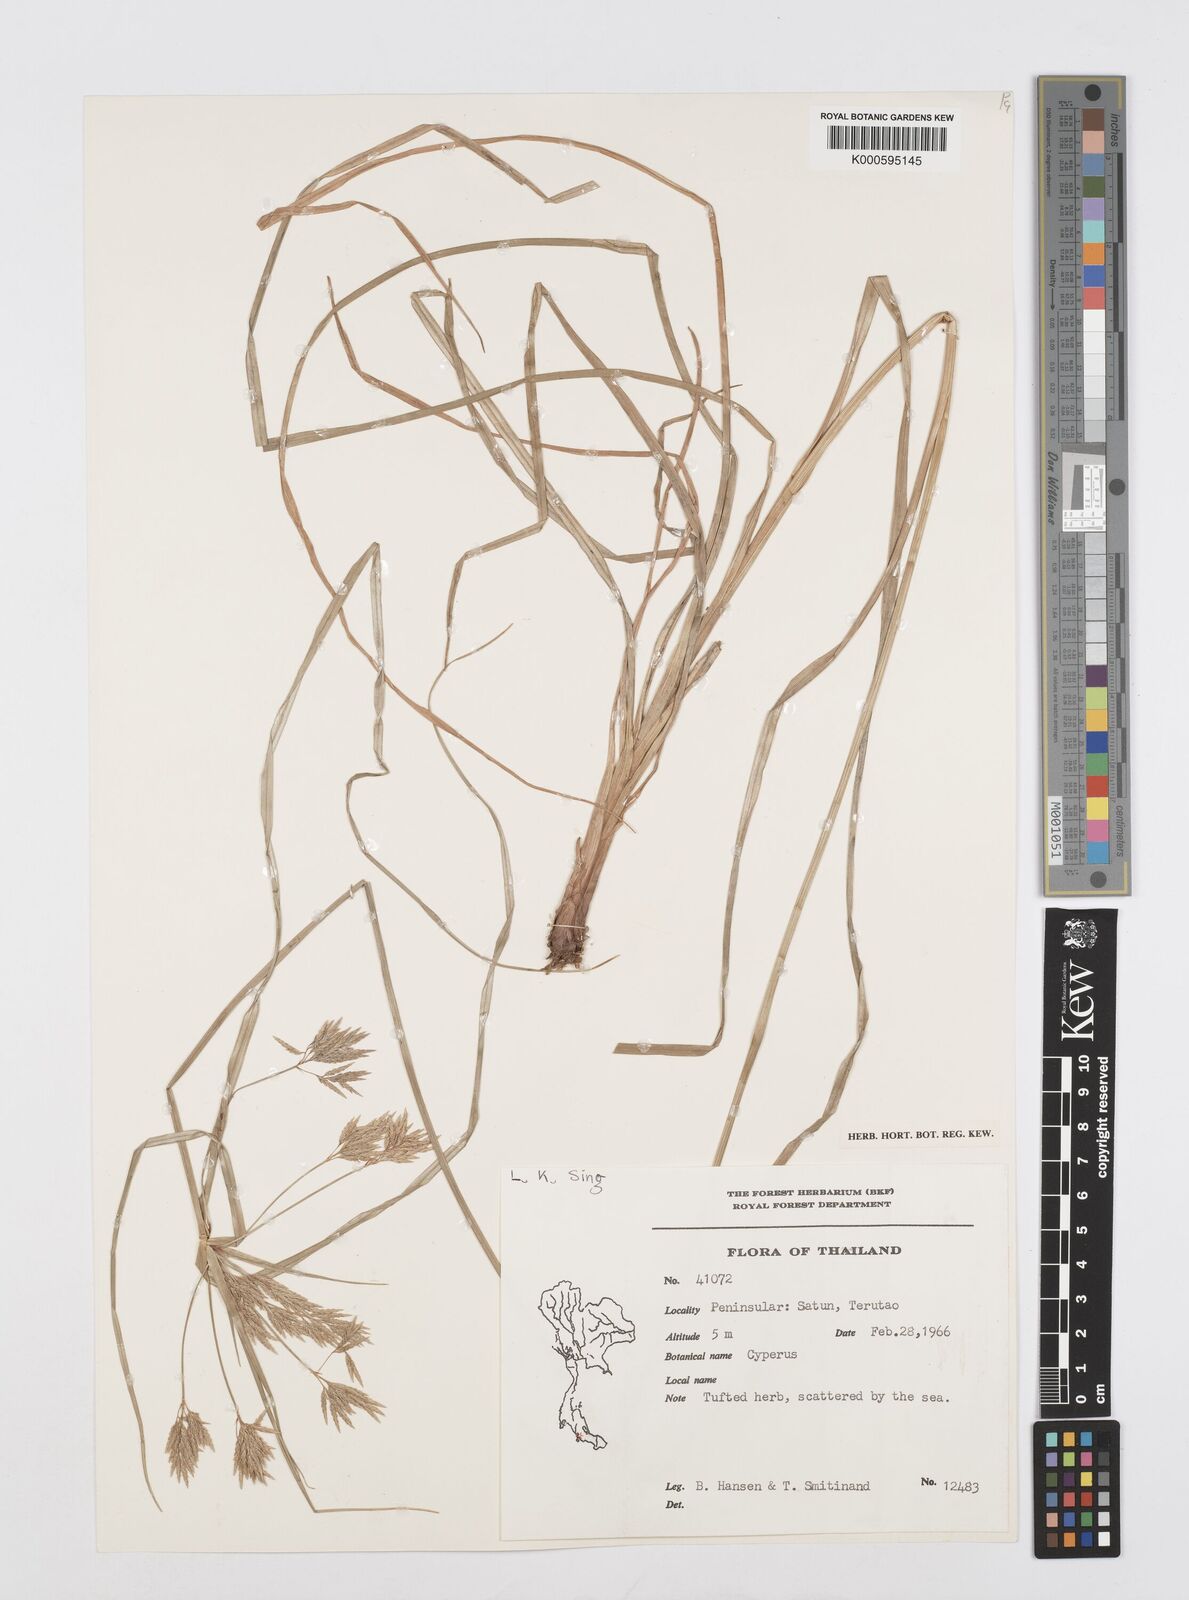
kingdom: Plantae
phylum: Tracheophyta
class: Liliopsida
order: Poales
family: Cyperaceae
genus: Cyperus
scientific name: Cyperus polystachyos
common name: Bunchy flat sedge
